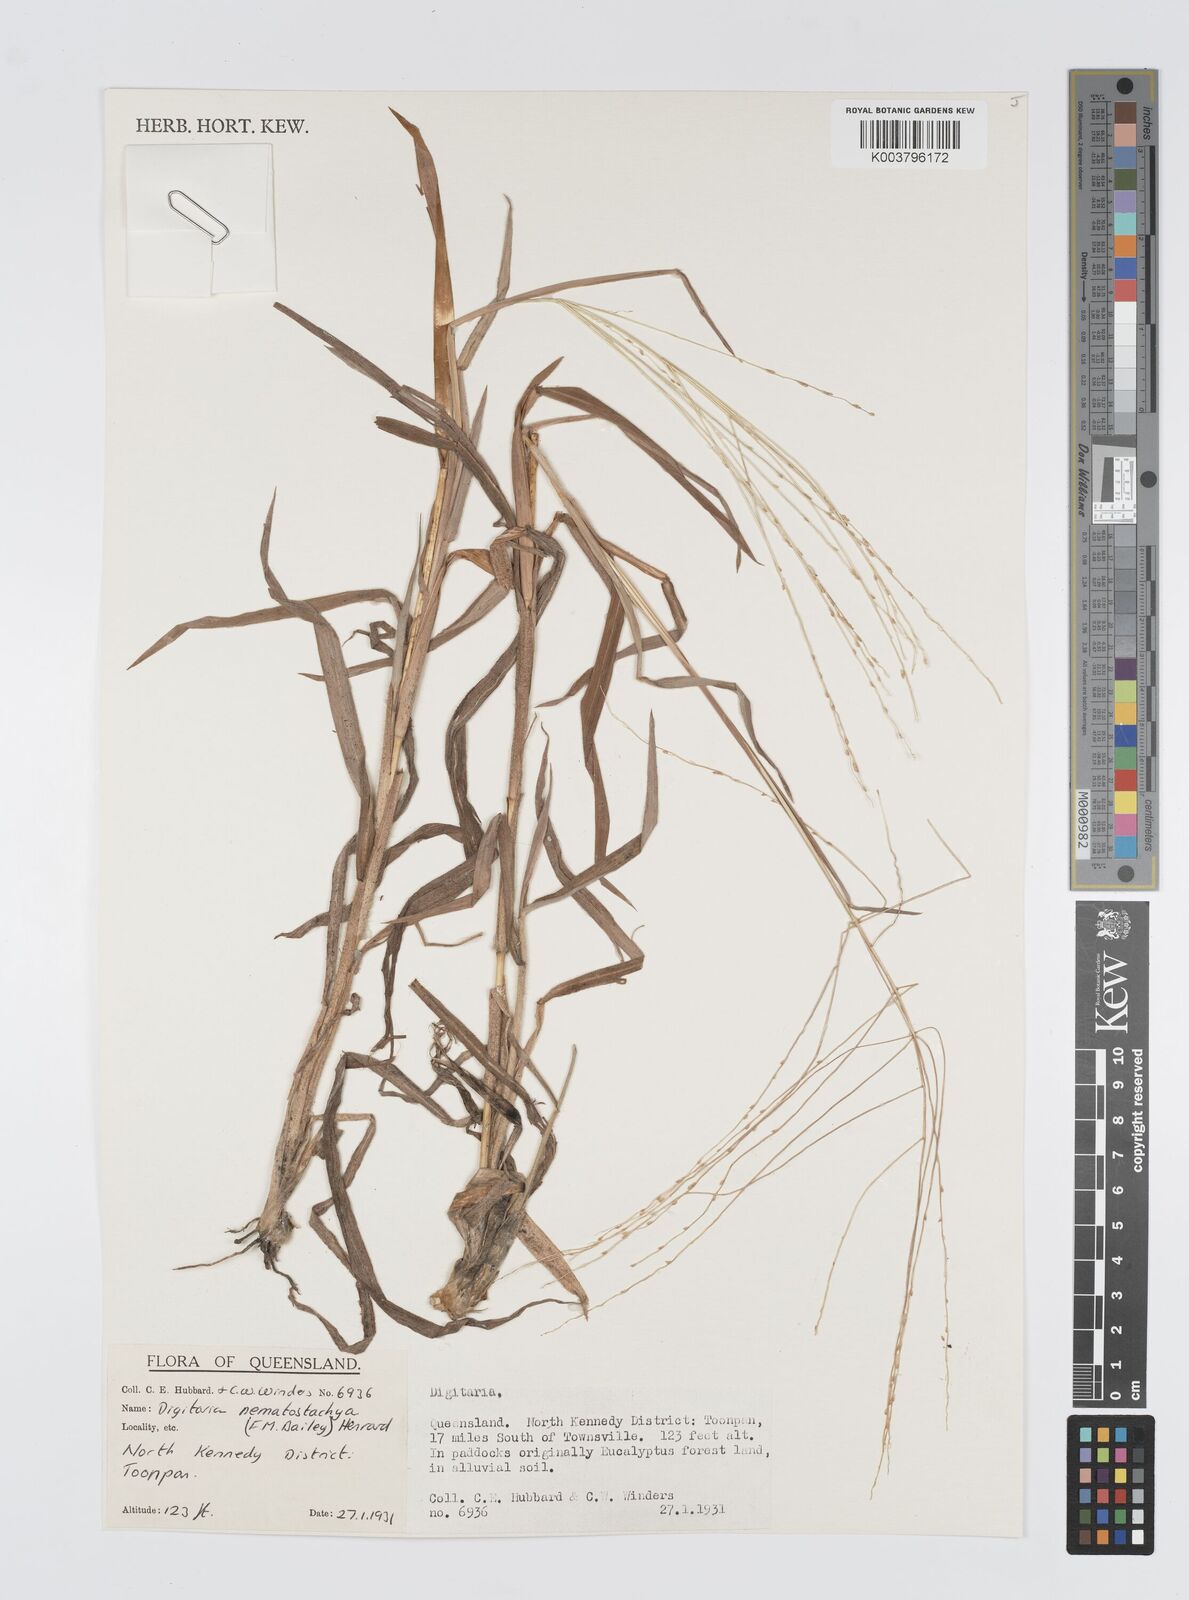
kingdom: Plantae
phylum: Tracheophyta
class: Liliopsida
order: Poales
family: Poaceae
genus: Digitaria
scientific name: Digitaria nematostachya
